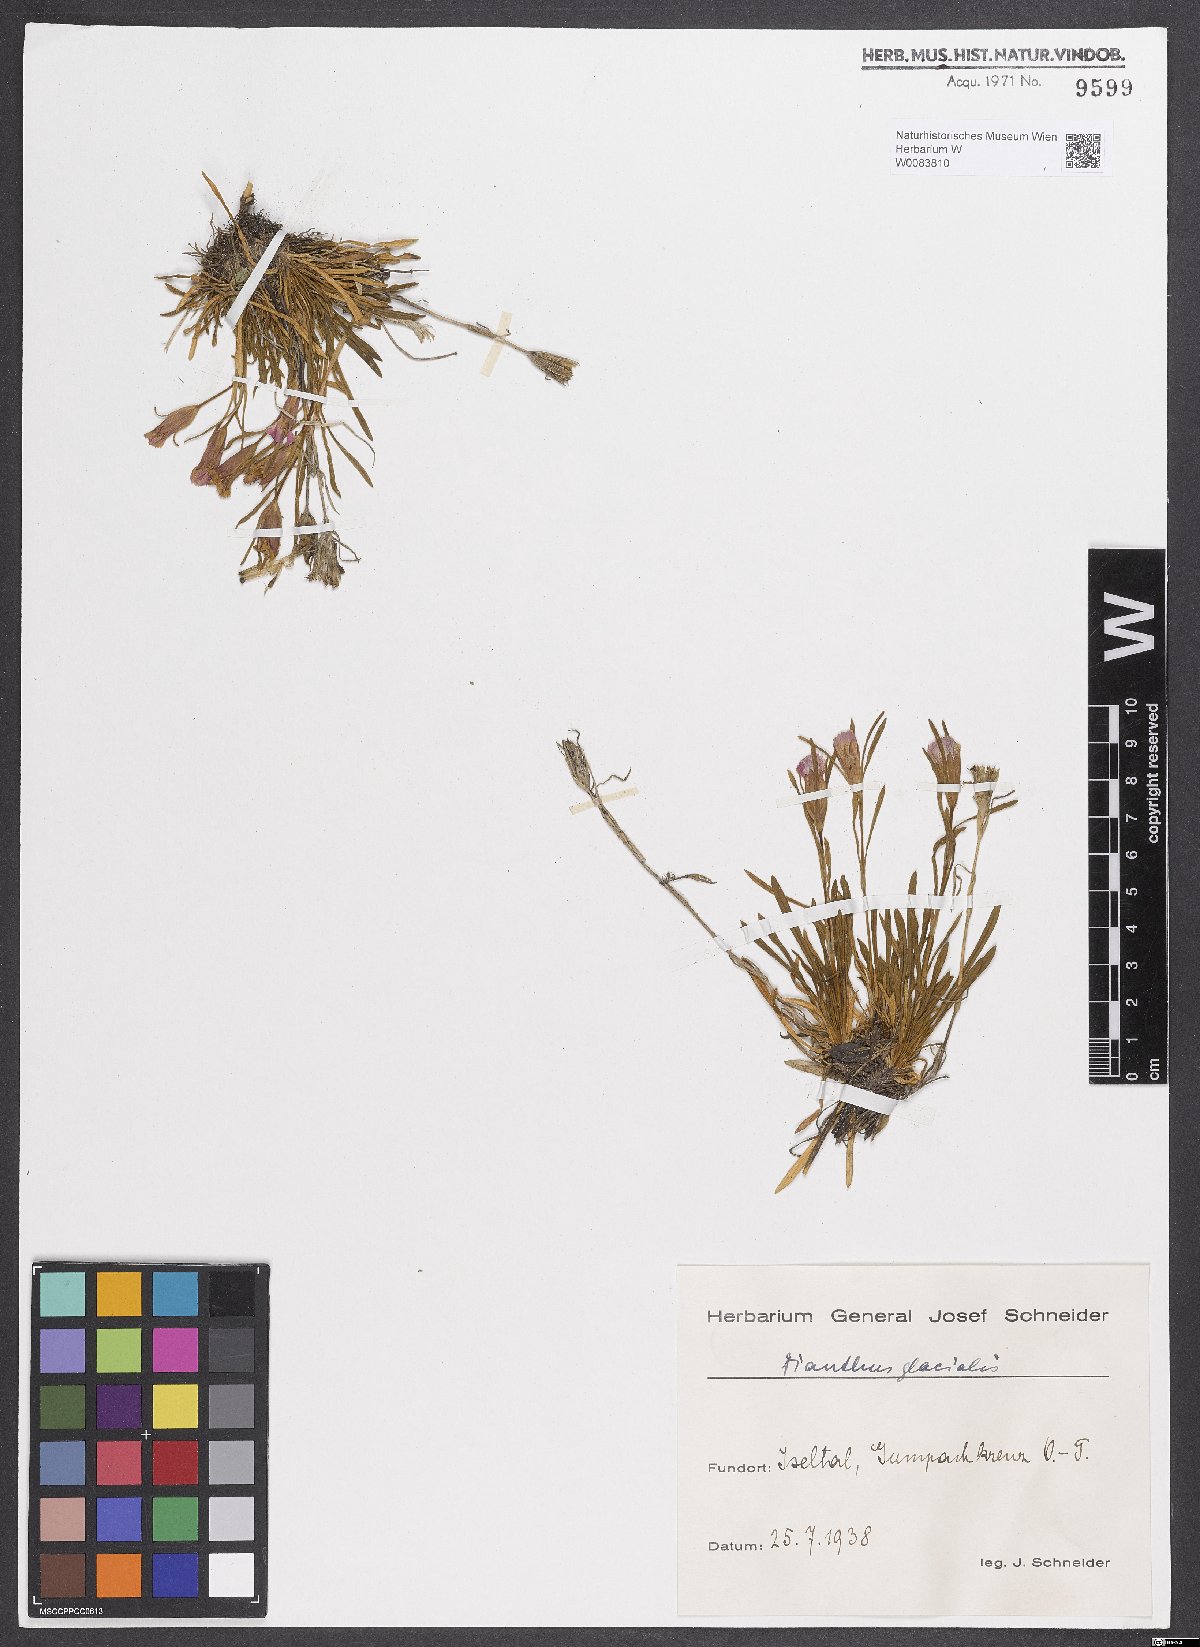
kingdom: Plantae
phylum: Tracheophyta
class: Magnoliopsida
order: Caryophyllales
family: Caryophyllaceae
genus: Dianthus
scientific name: Dianthus glacialis
